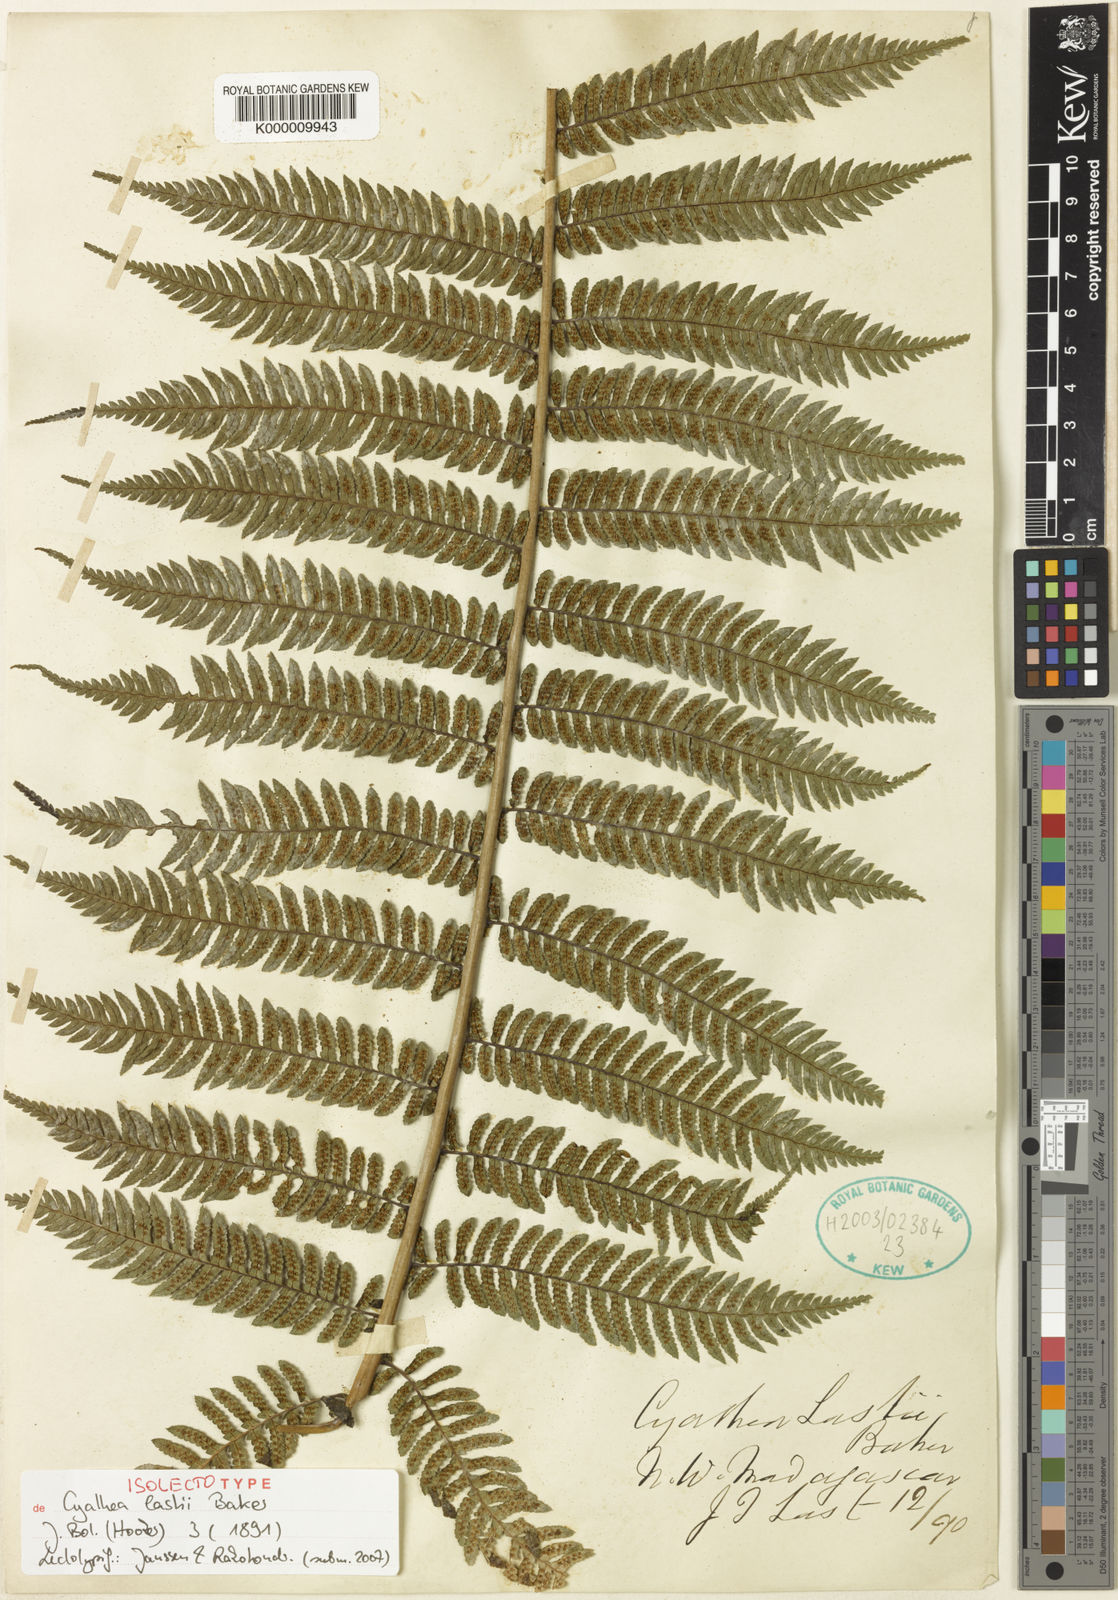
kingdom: Plantae
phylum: Tracheophyta
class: Polypodiopsida
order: Cyatheales
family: Cyatheaceae
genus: Alsophila
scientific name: Alsophila lastii
